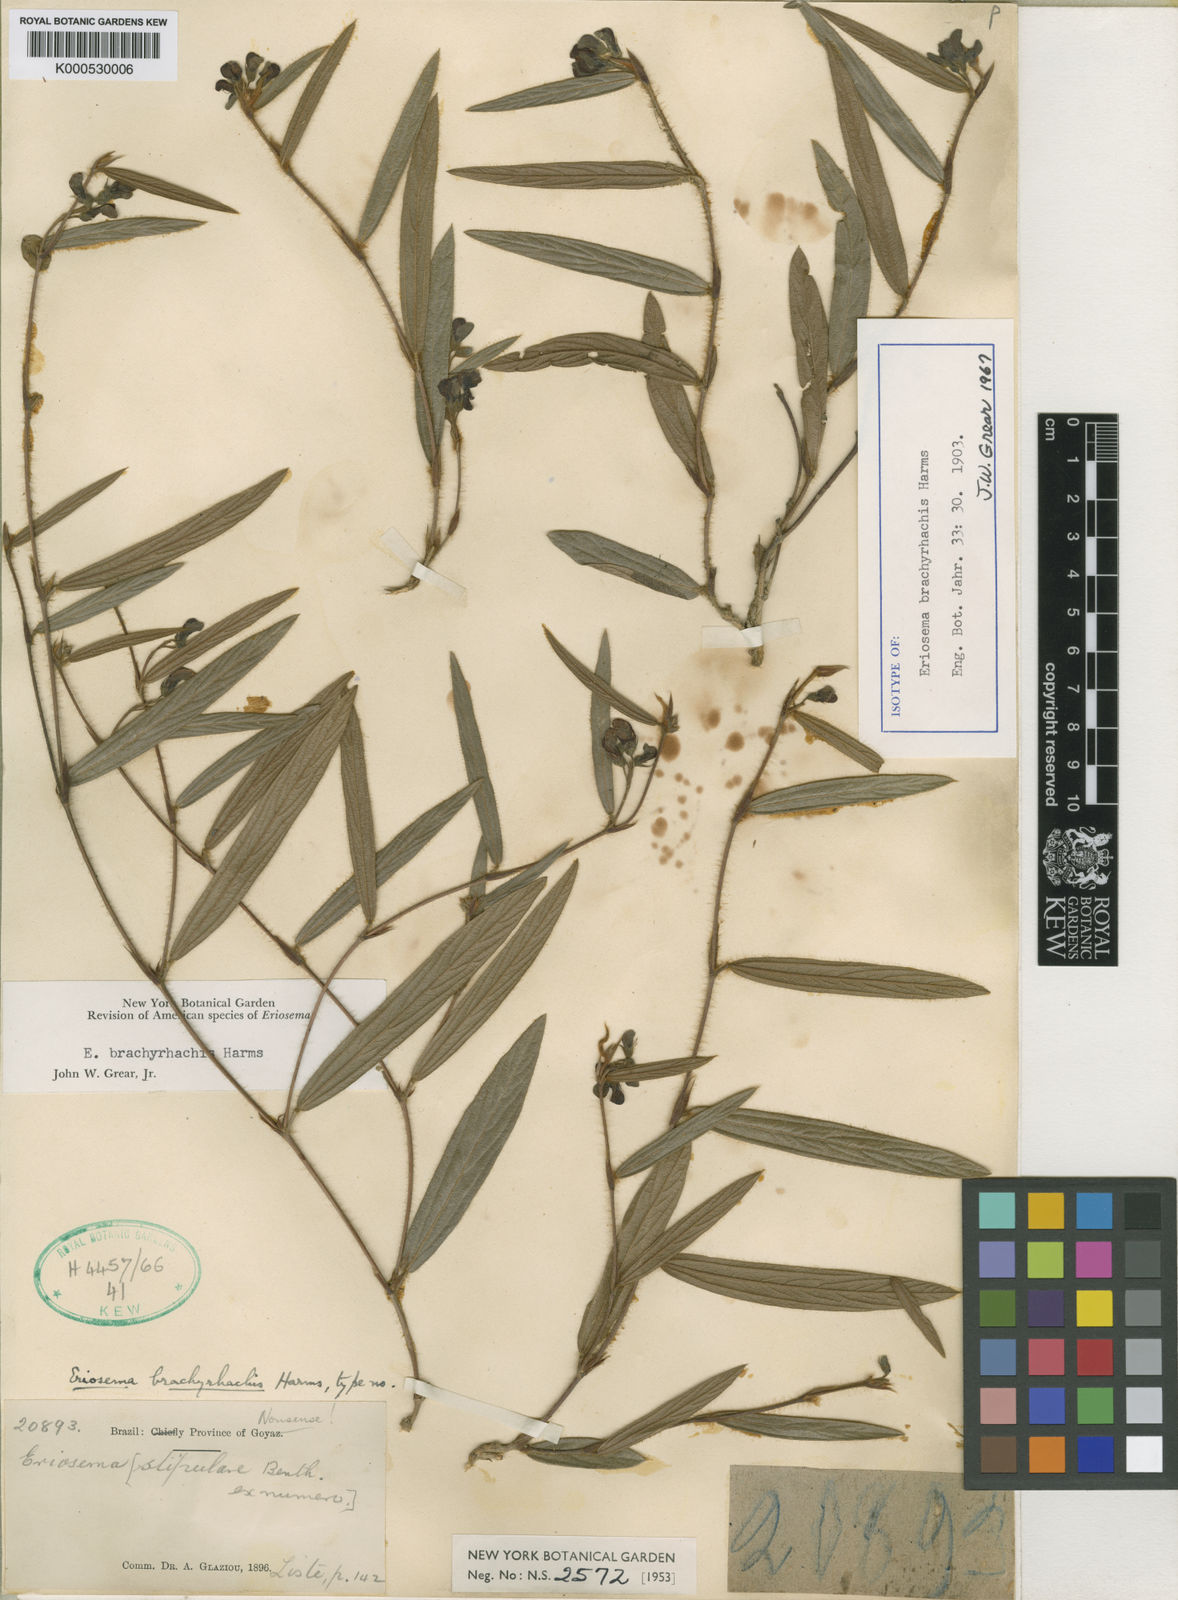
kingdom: Plantae
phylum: Tracheophyta
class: Magnoliopsida
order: Fabales
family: Fabaceae
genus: Eriosema
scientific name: Eriosema brachyrhachis
